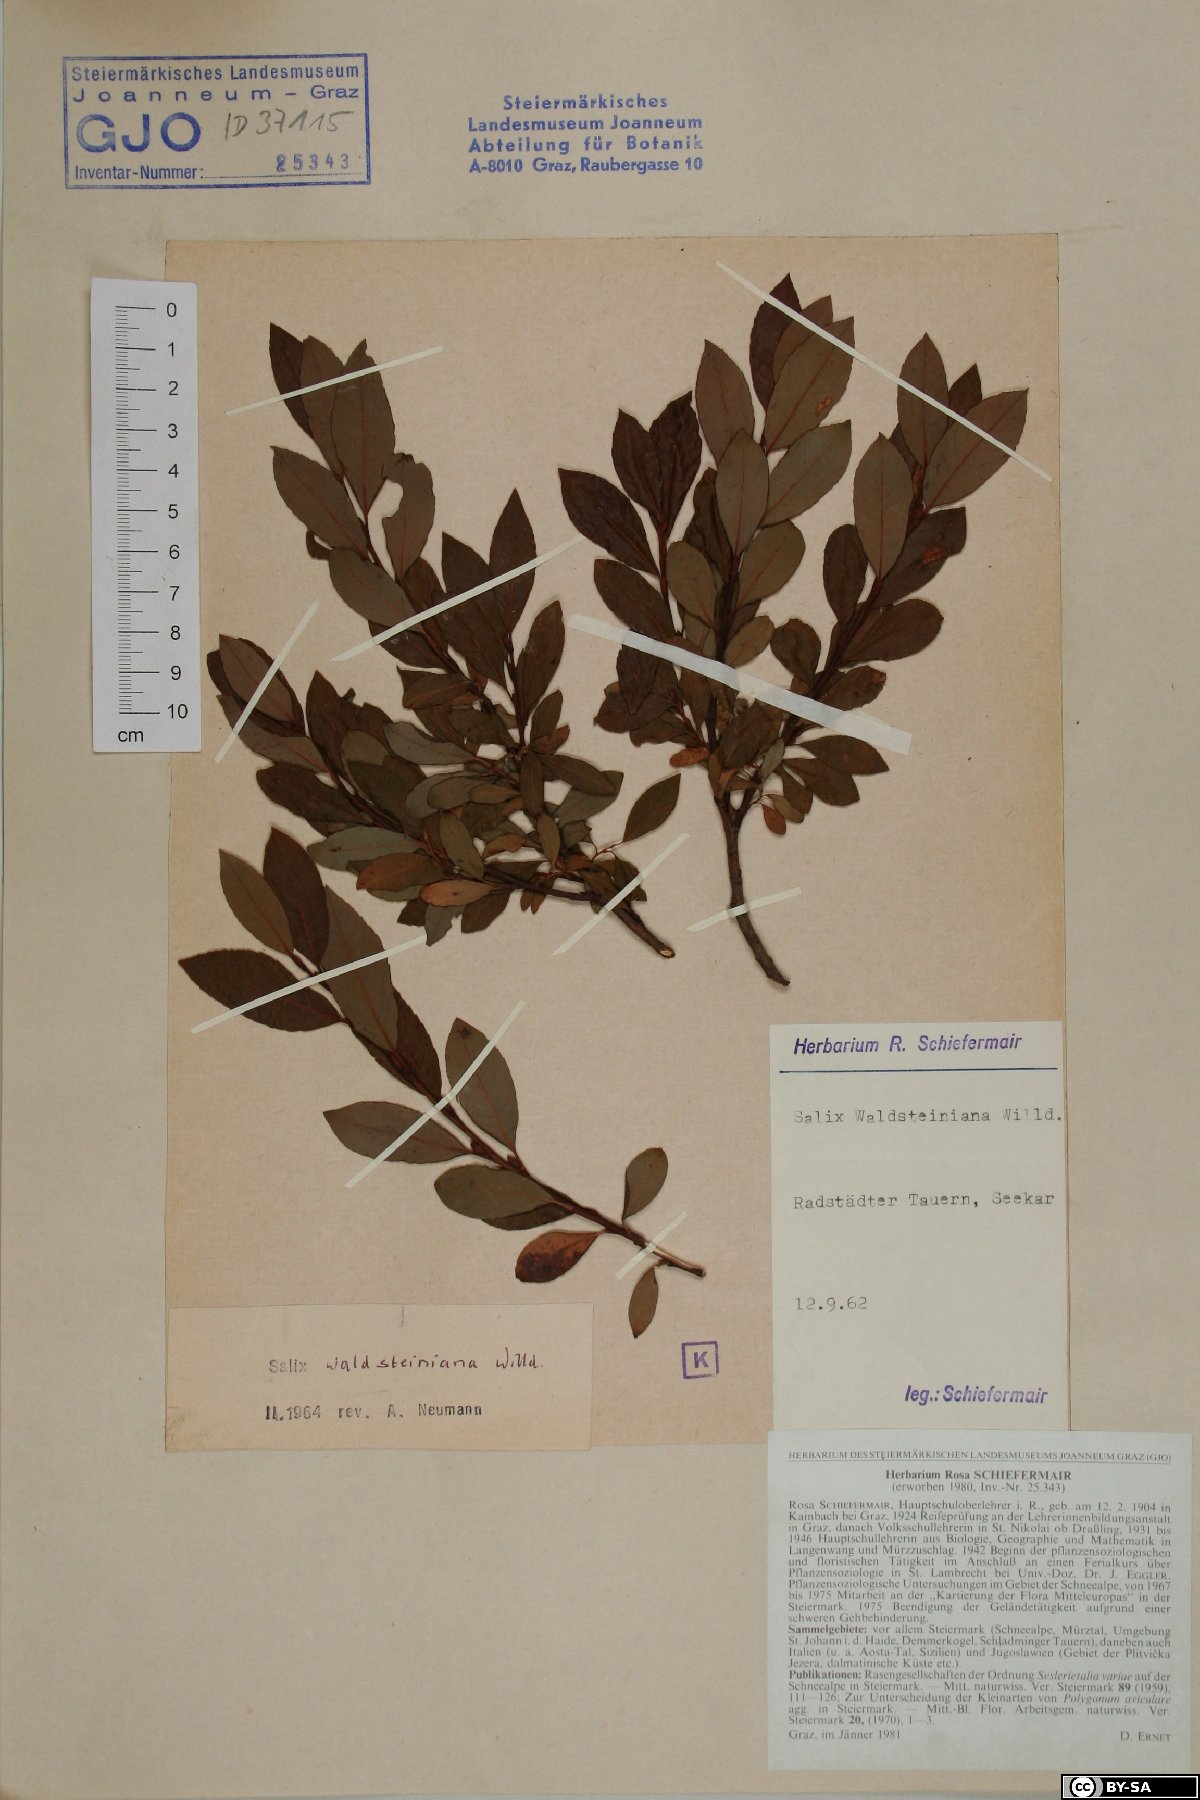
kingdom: Plantae
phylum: Tracheophyta
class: Magnoliopsida
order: Malpighiales
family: Salicaceae
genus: Salix
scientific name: Salix waldsteiniana
